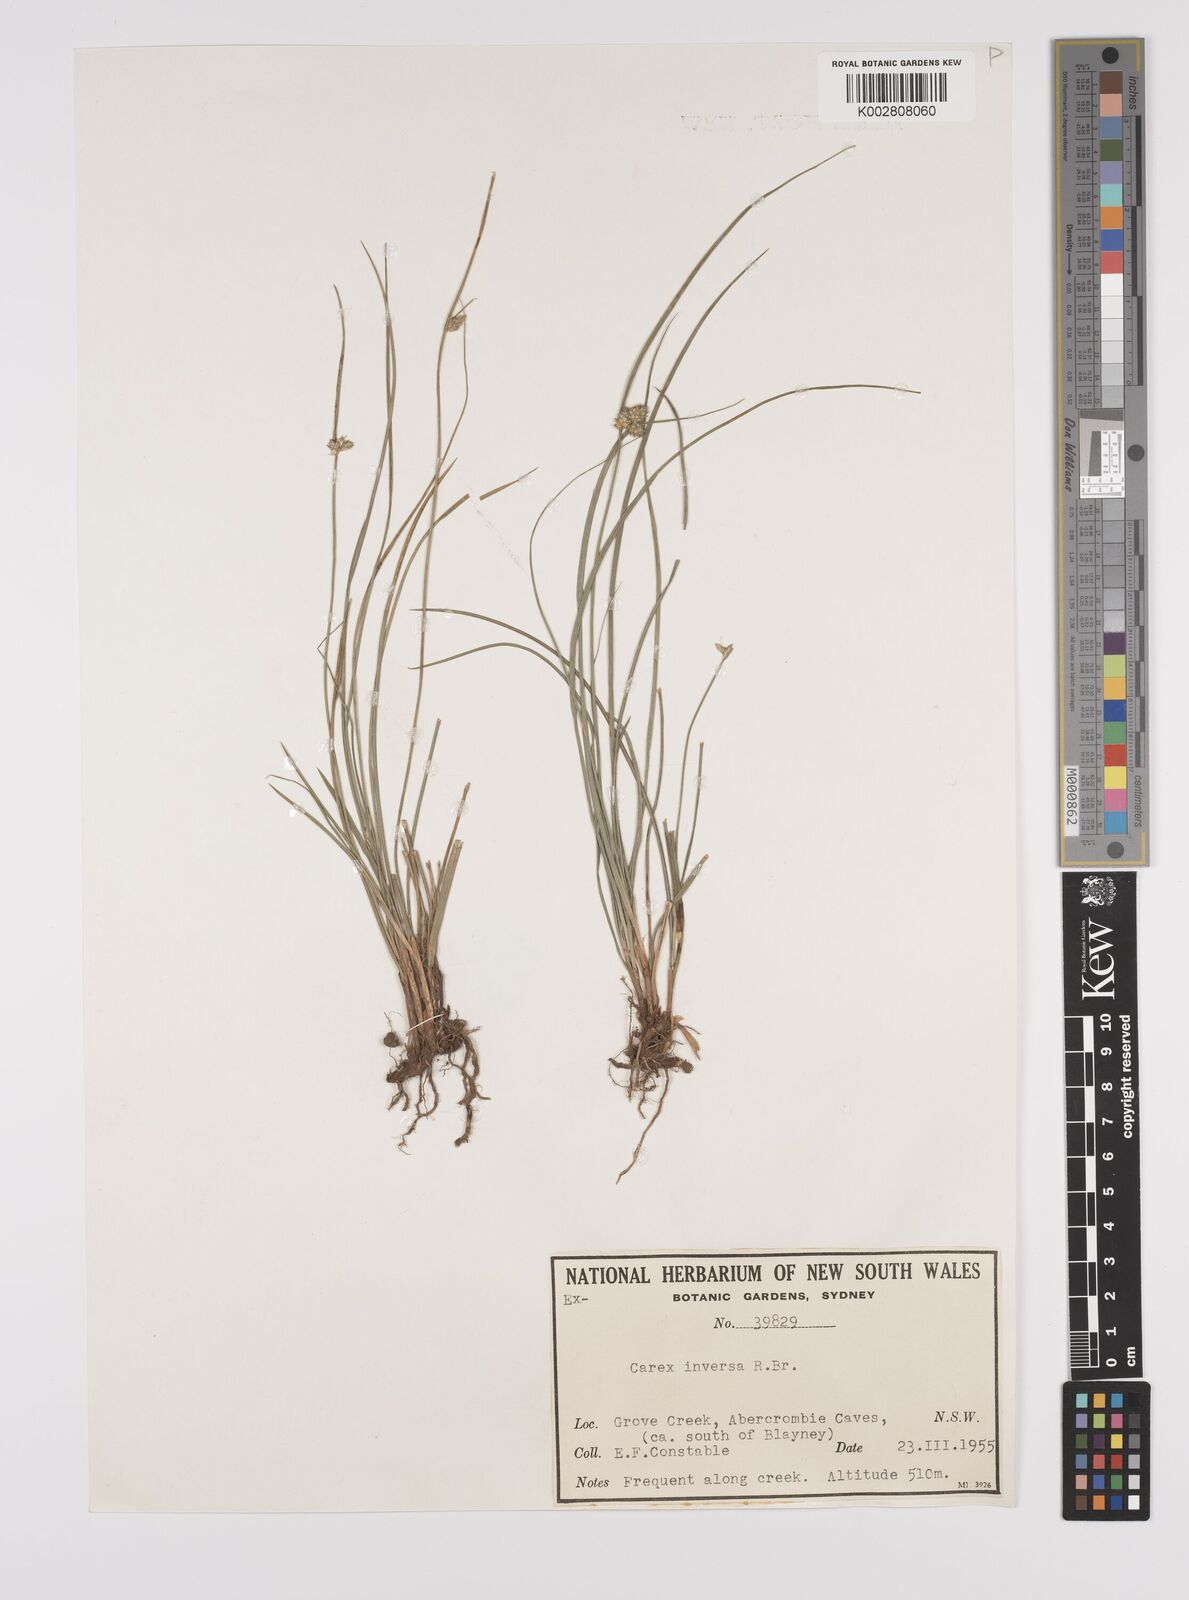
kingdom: Plantae
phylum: Tracheophyta
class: Liliopsida
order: Poales
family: Cyperaceae
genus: Carex
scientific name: Carex inversa
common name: Knob sedge
